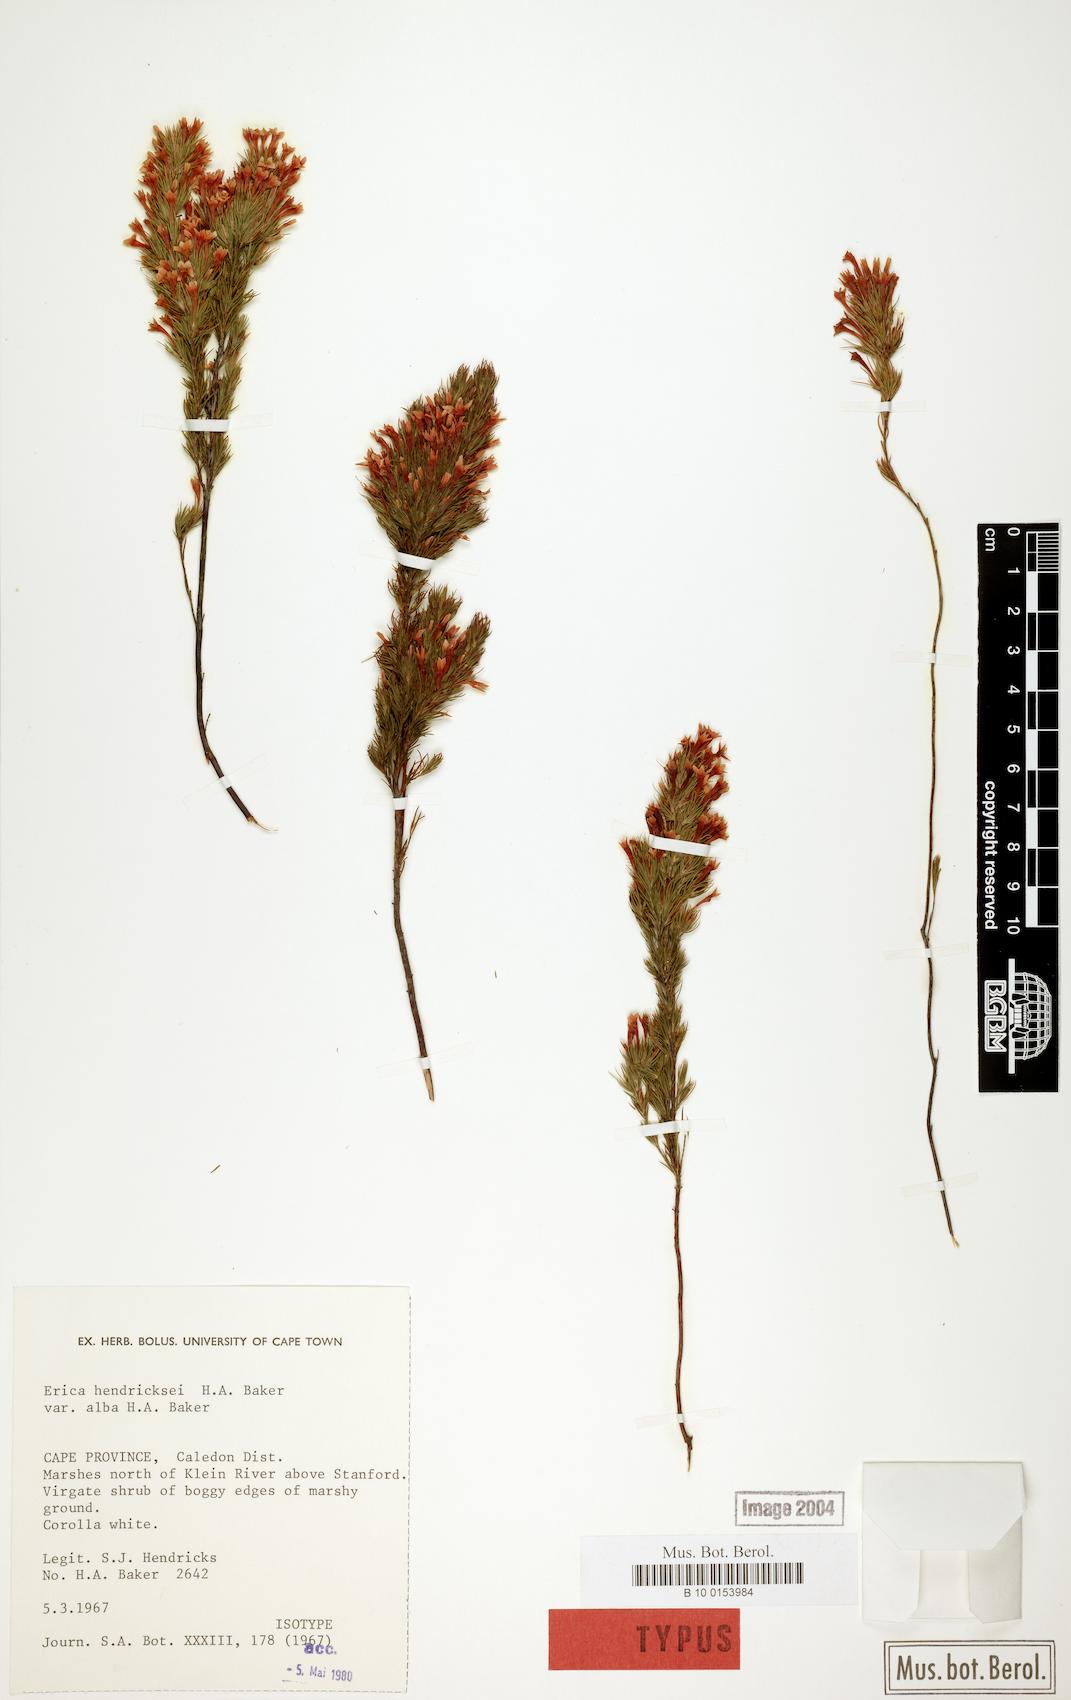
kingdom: Plantae
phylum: Tracheophyta
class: Magnoliopsida
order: Ericales
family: Ericaceae
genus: Erica
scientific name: Erica hendricksei
